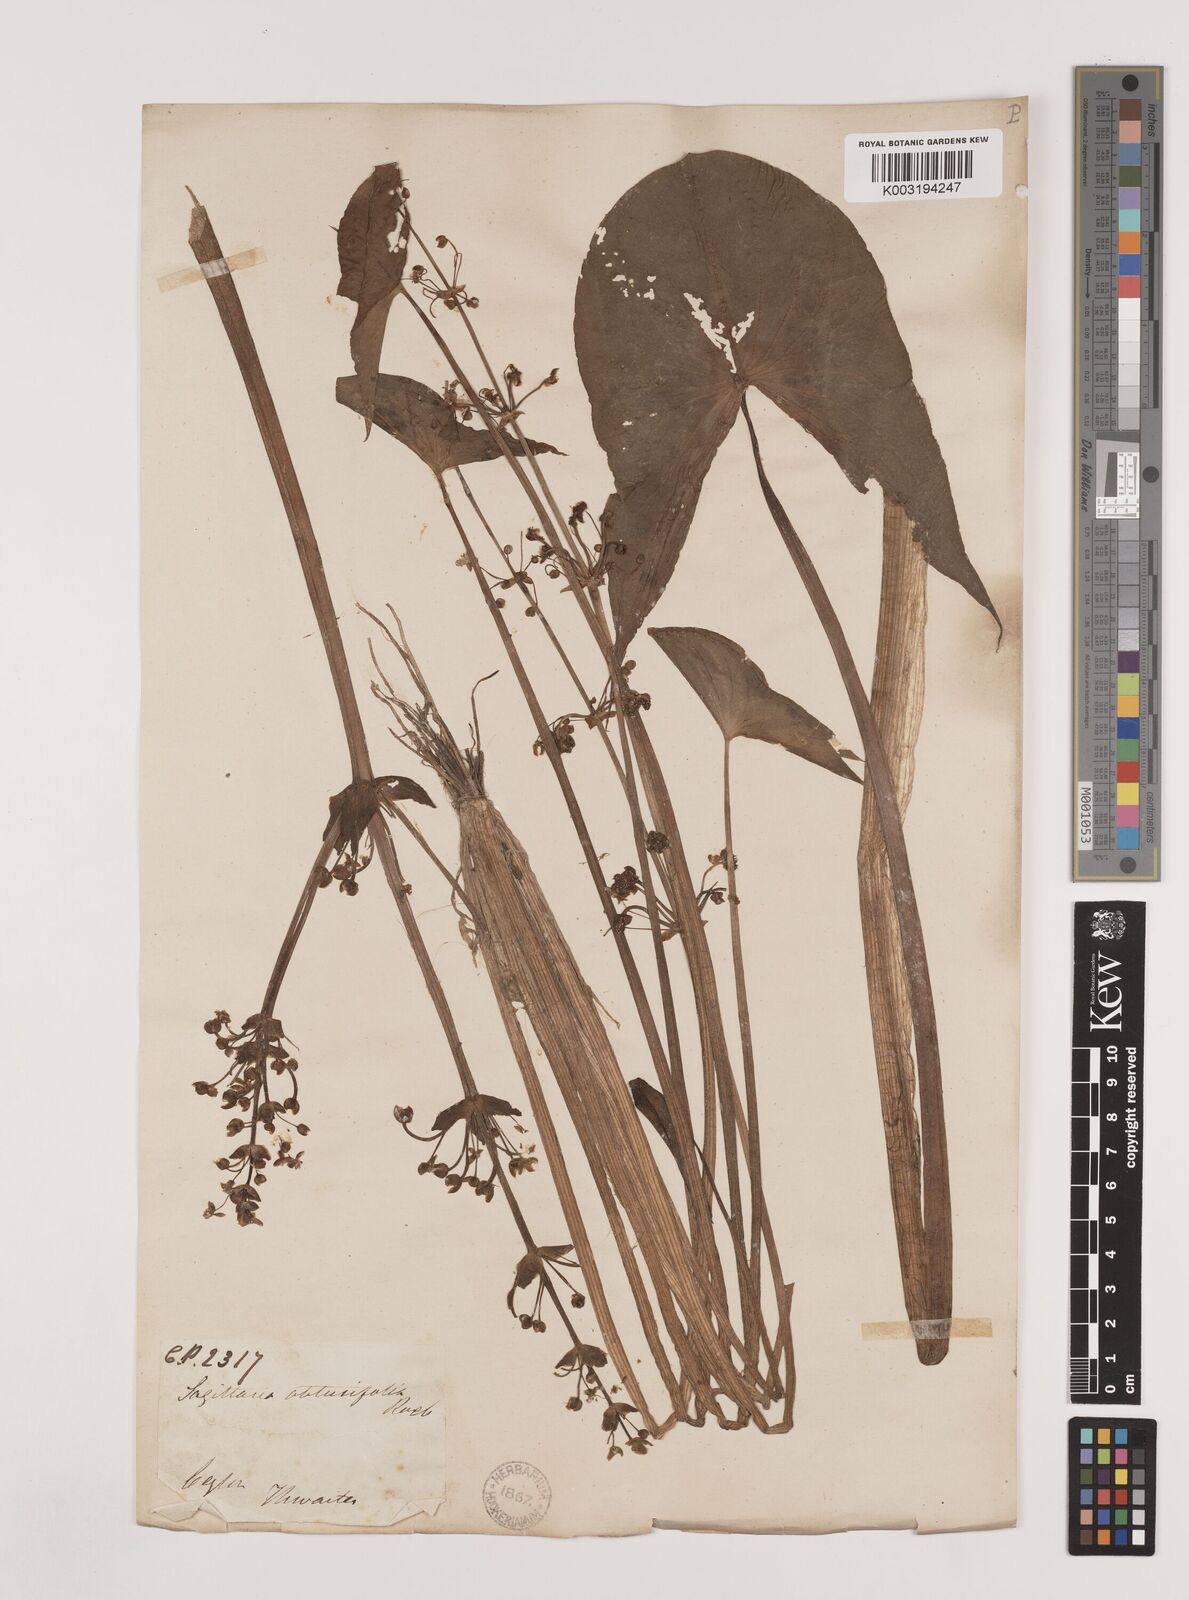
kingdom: Plantae
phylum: Tracheophyta
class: Liliopsida
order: Alismatales
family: Alismataceae
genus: Limnophyton
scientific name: Limnophyton obtusifolium
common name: Arrow head
